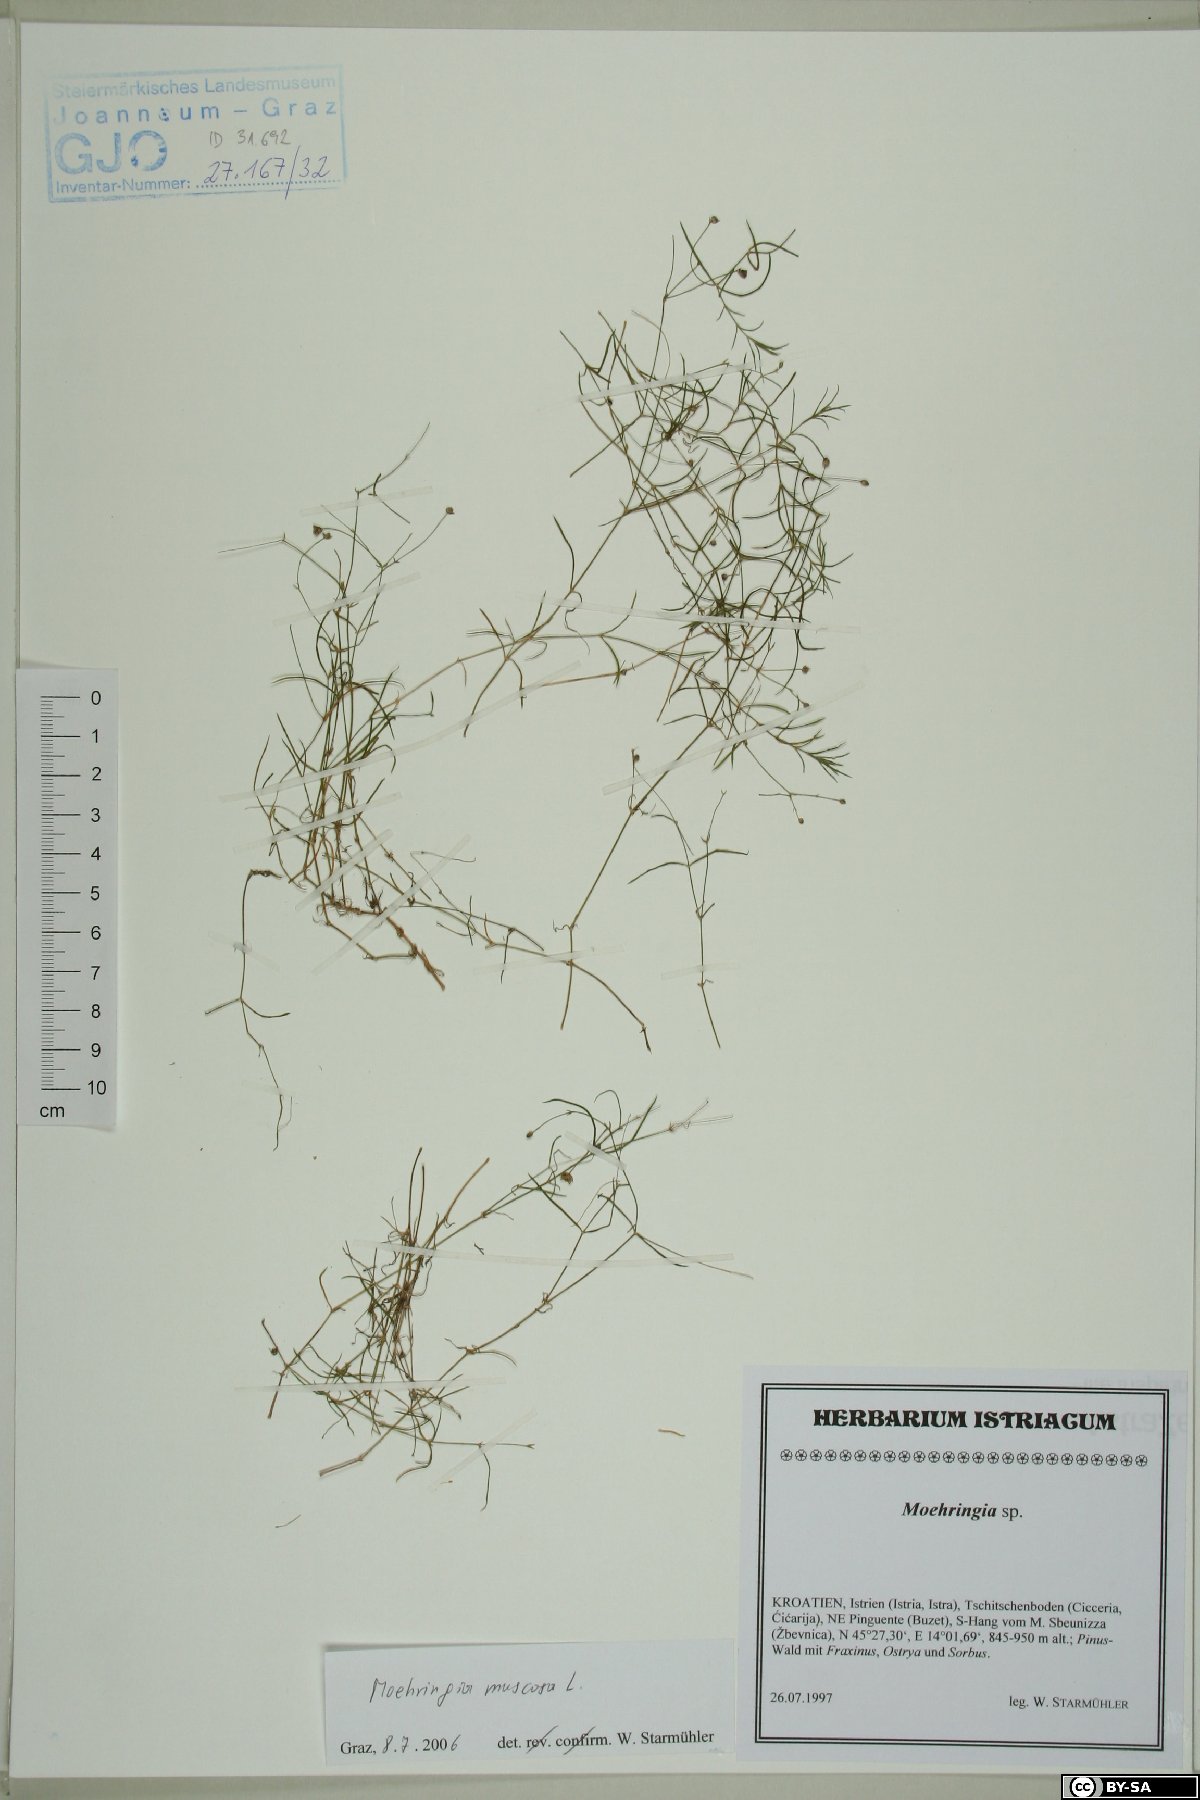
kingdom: Plantae
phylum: Tracheophyta
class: Magnoliopsida
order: Caryophyllales
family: Caryophyllaceae
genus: Moehringia
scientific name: Moehringia muscosa
